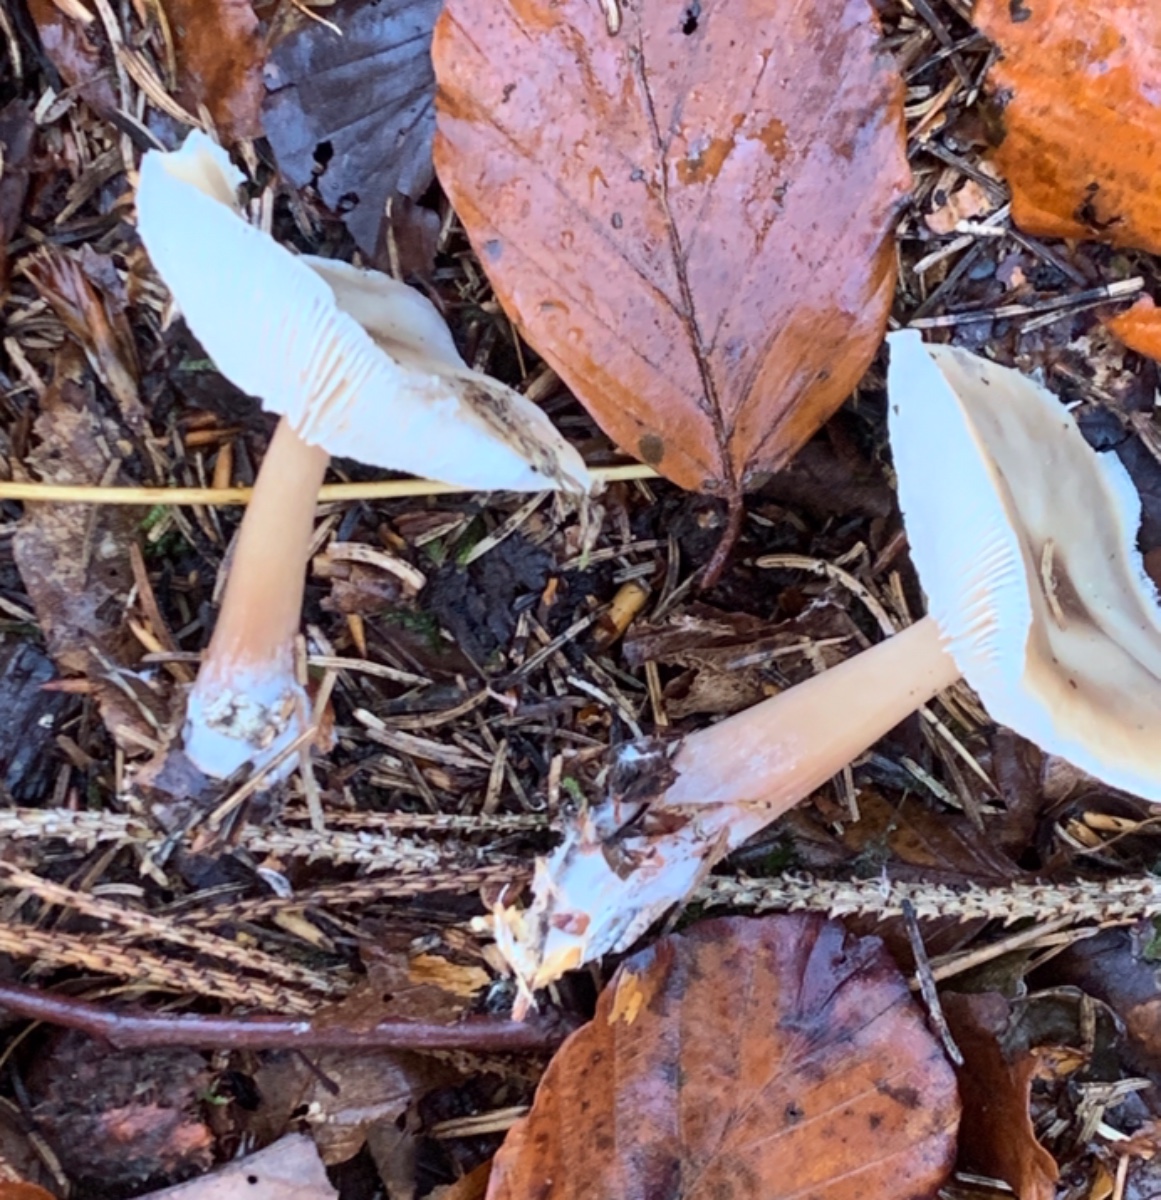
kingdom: Fungi
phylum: Basidiomycota
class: Agaricomycetes
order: Agaricales
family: Omphalotaceae
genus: Rhodocollybia
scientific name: Rhodocollybia asema
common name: horngrå fladhat
